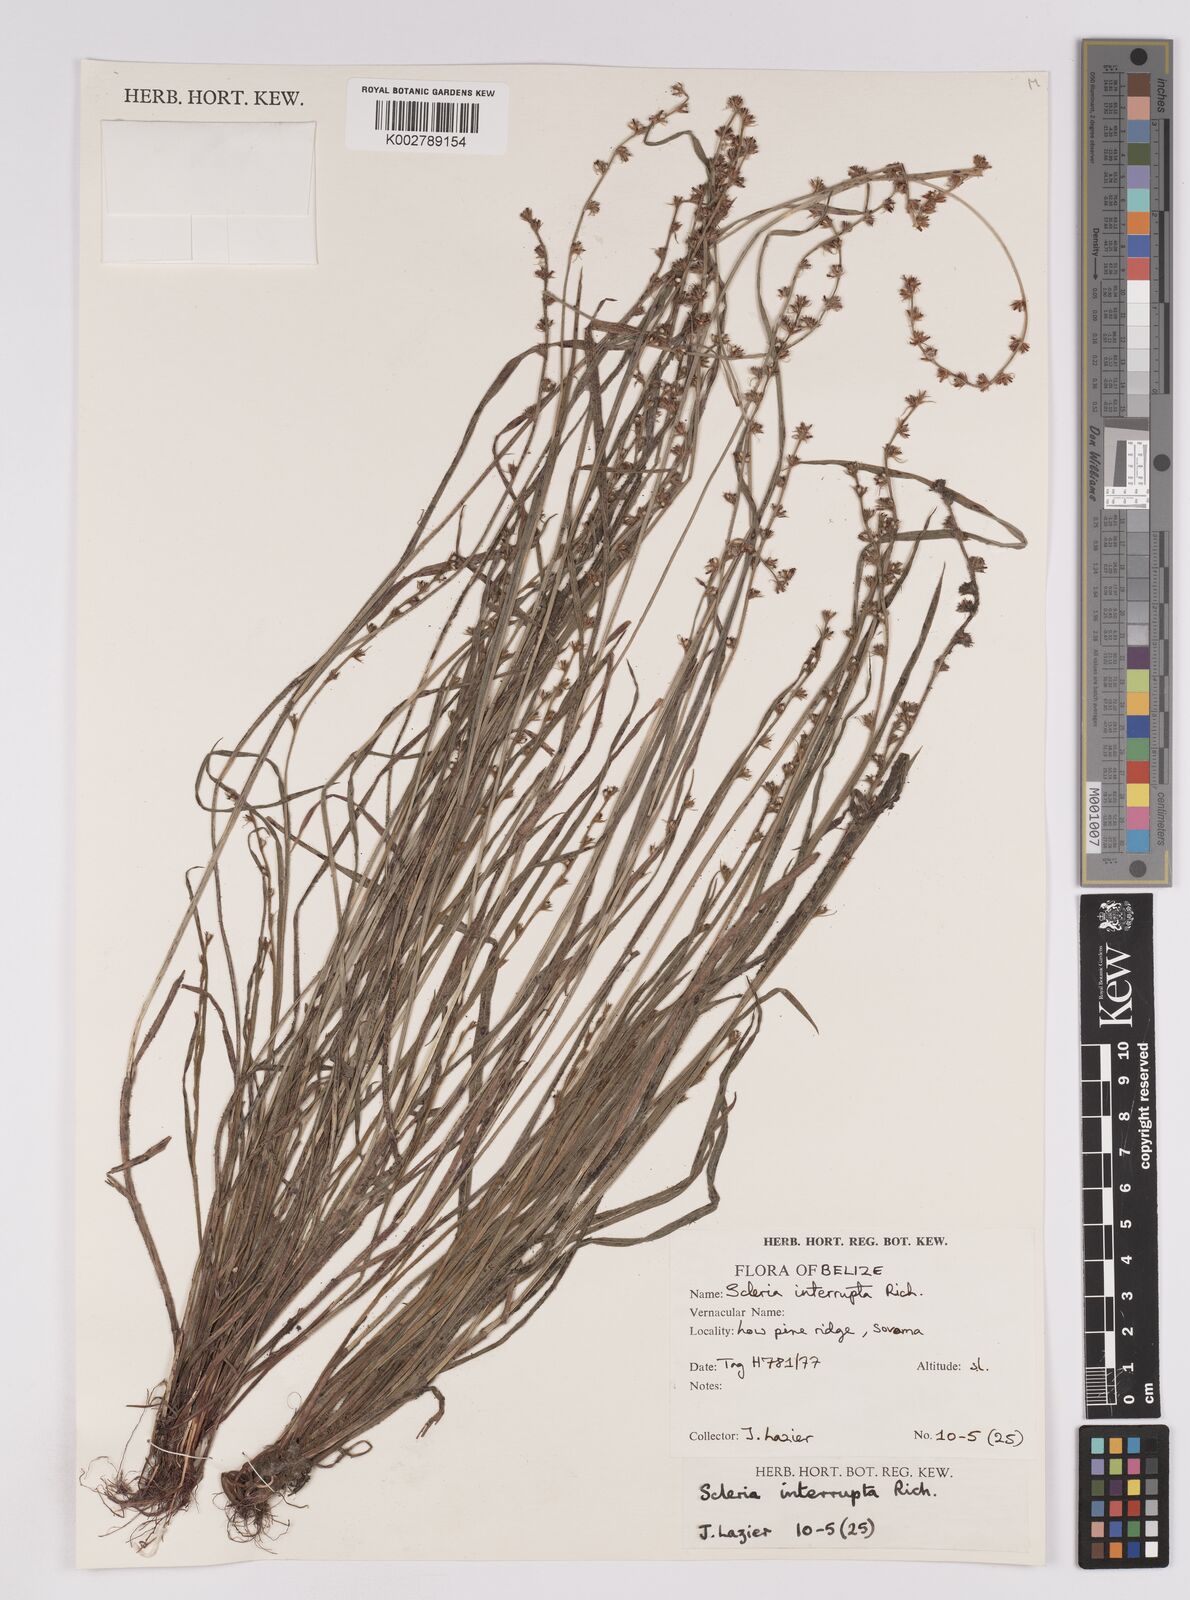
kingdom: Plantae
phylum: Tracheophyta
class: Liliopsida
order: Poales
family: Cyperaceae
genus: Scleria
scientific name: Scleria interrupta
